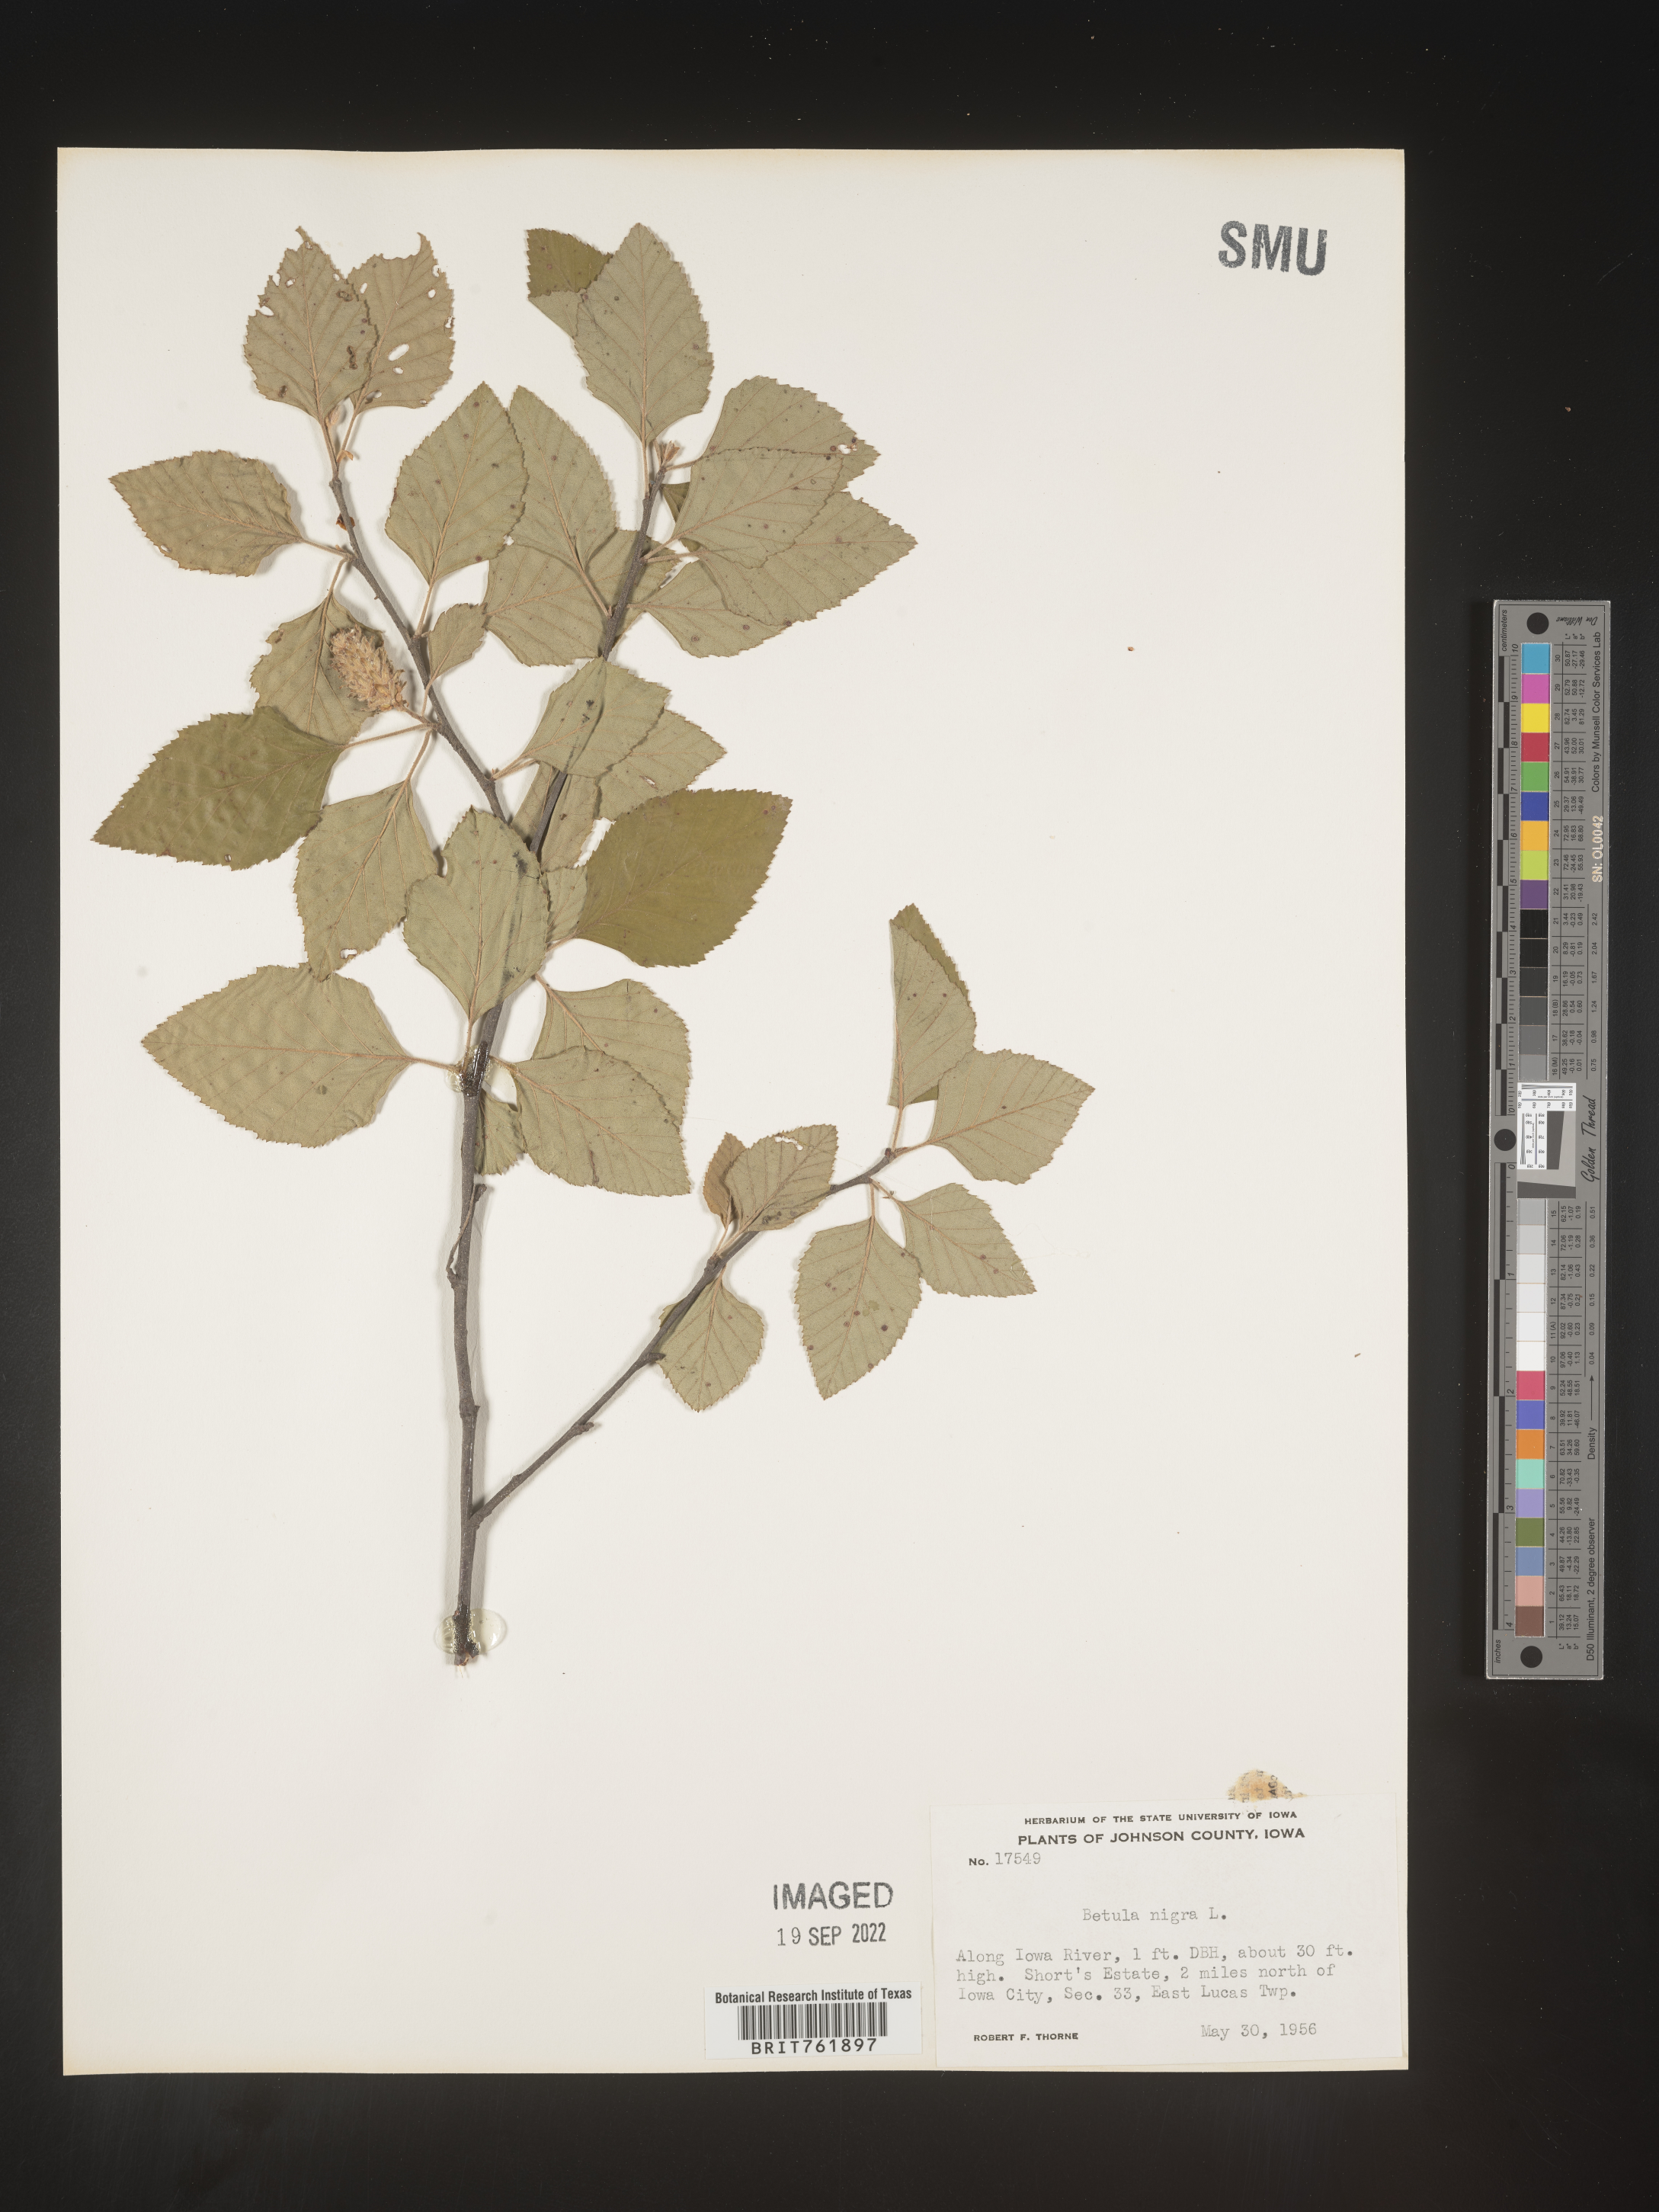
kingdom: Plantae
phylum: Tracheophyta
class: Magnoliopsida
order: Fagales
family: Betulaceae
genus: Betula
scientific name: Betula nigra
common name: Black birch
